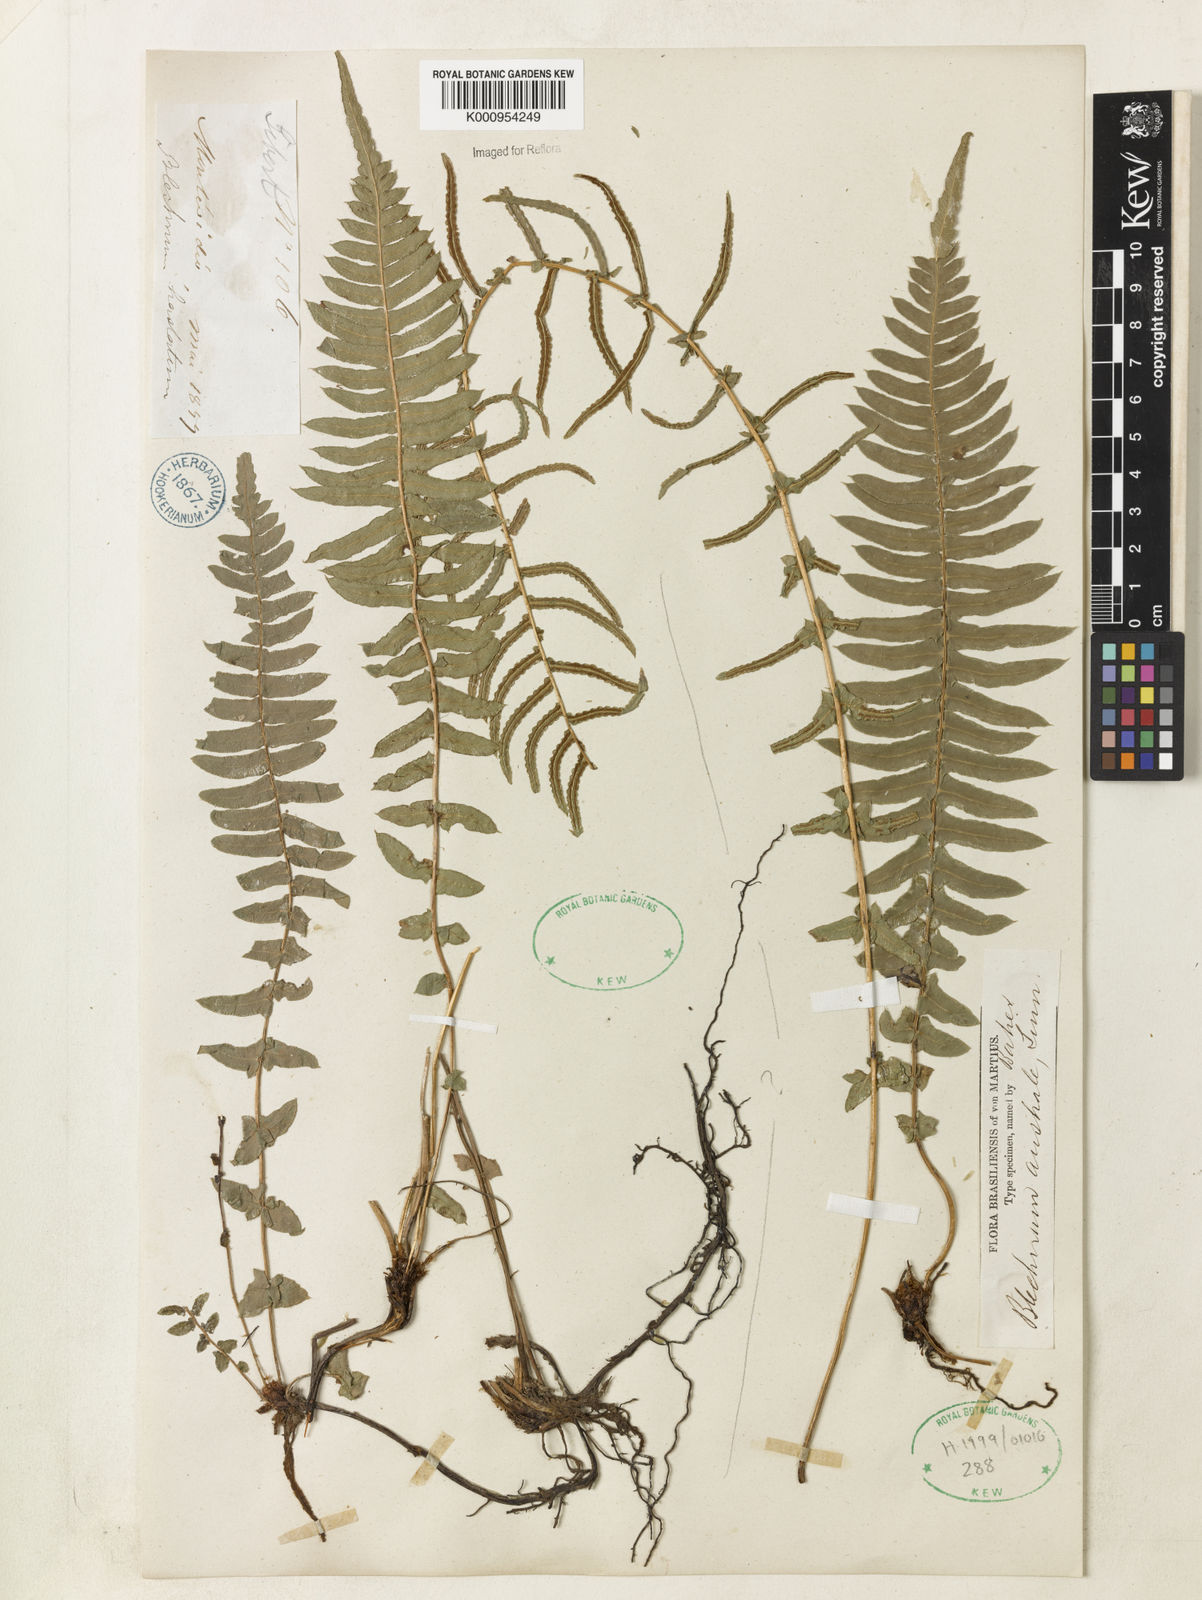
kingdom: Plantae
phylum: Tracheophyta
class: Polypodiopsida
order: Polypodiales
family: Blechnaceae
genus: Blechnum
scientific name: Blechnum australe
